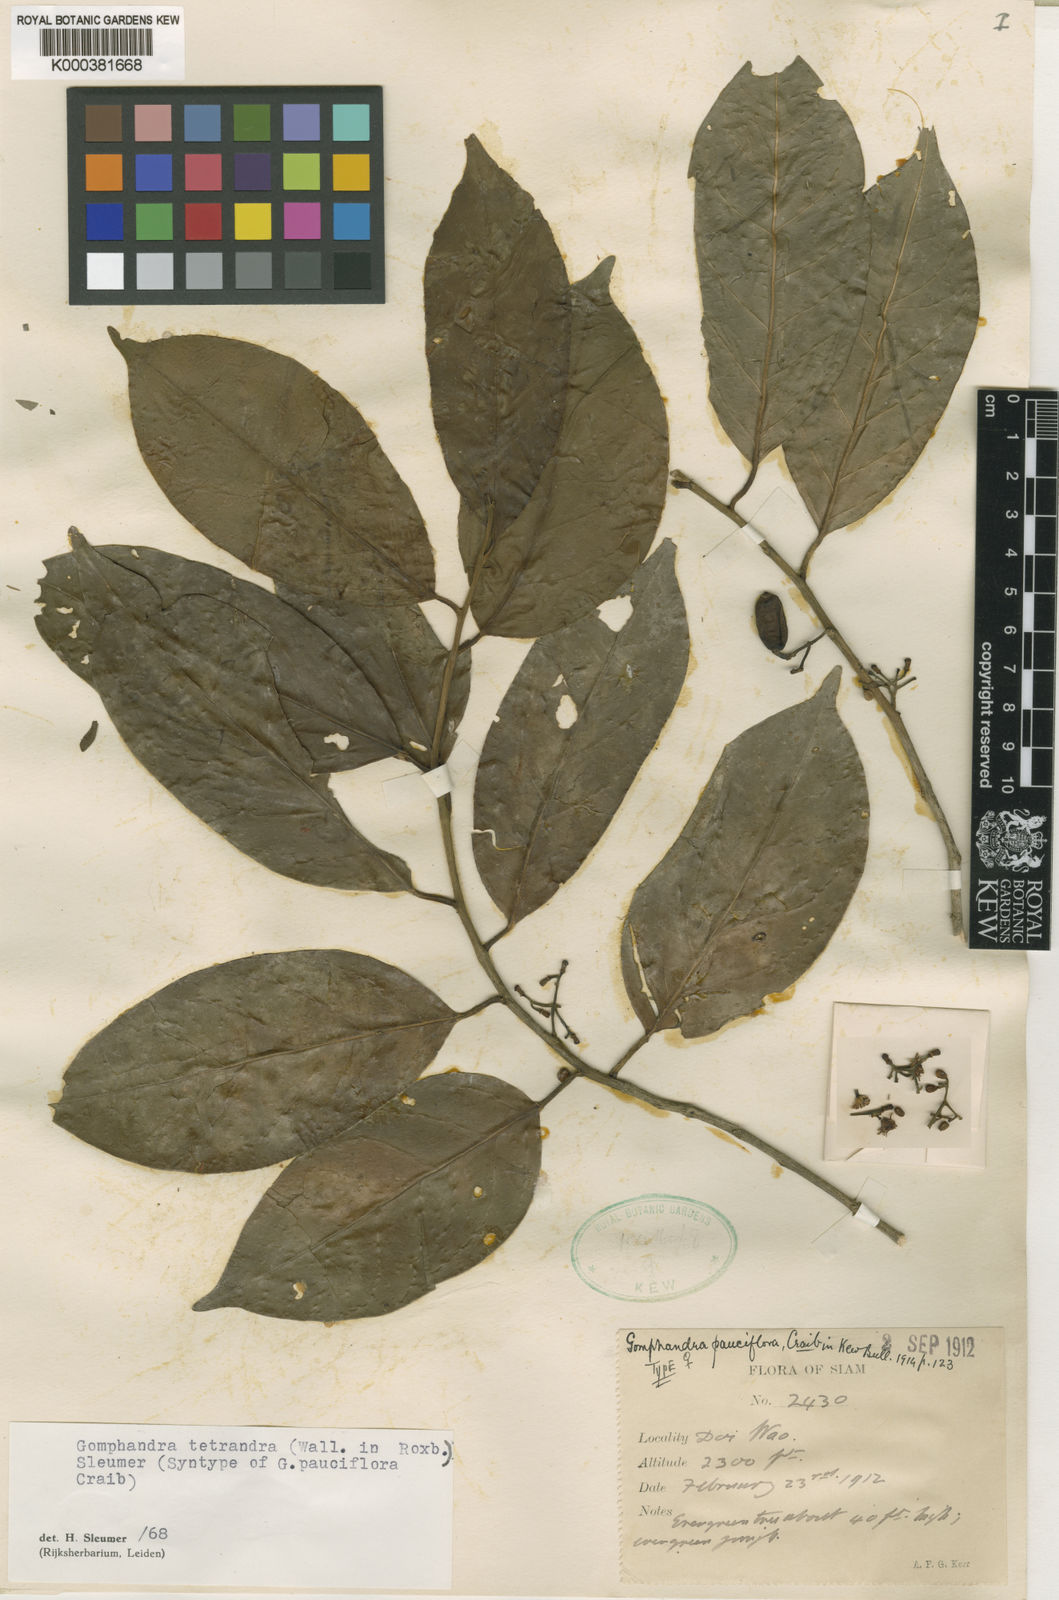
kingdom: Plantae
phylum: Tracheophyta
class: Magnoliopsida
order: Cardiopteridales
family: Stemonuraceae
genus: Gomphandra
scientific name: Gomphandra tetrandra
